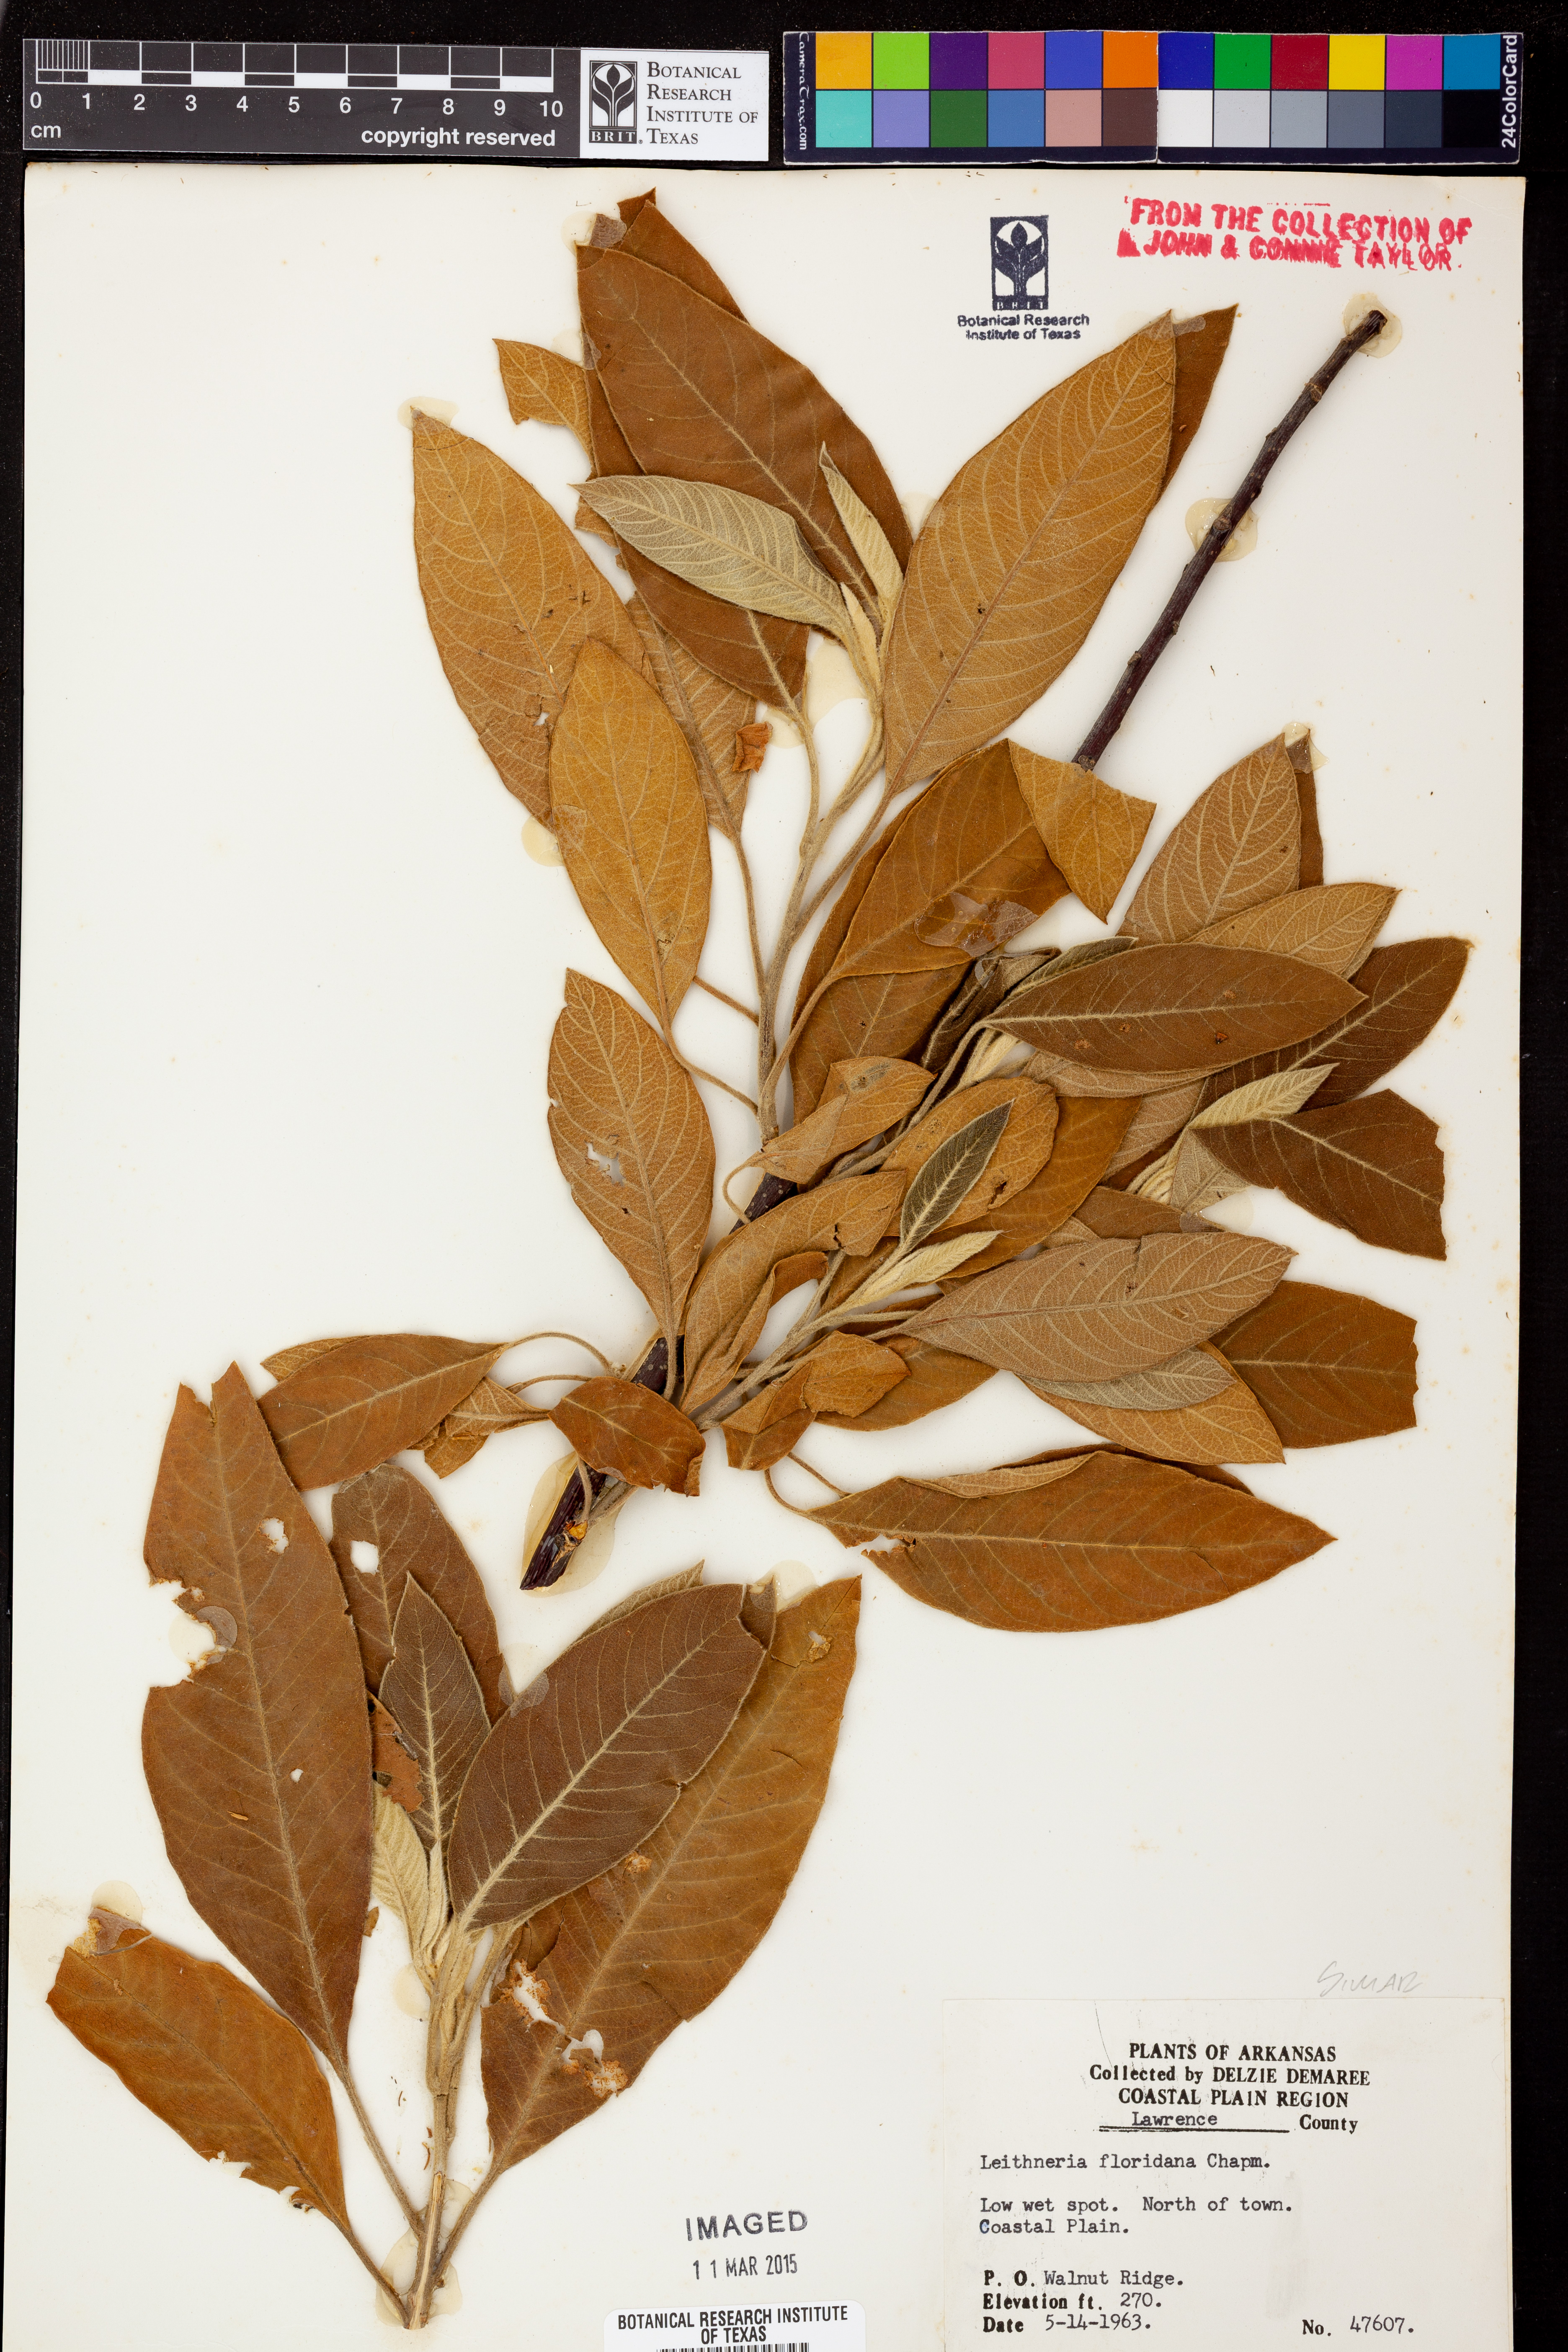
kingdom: Plantae
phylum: Tracheophyta
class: Magnoliopsida
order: Sapindales
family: Simaroubaceae
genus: Leitneria
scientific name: Leitneria floridana
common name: Corkwood
